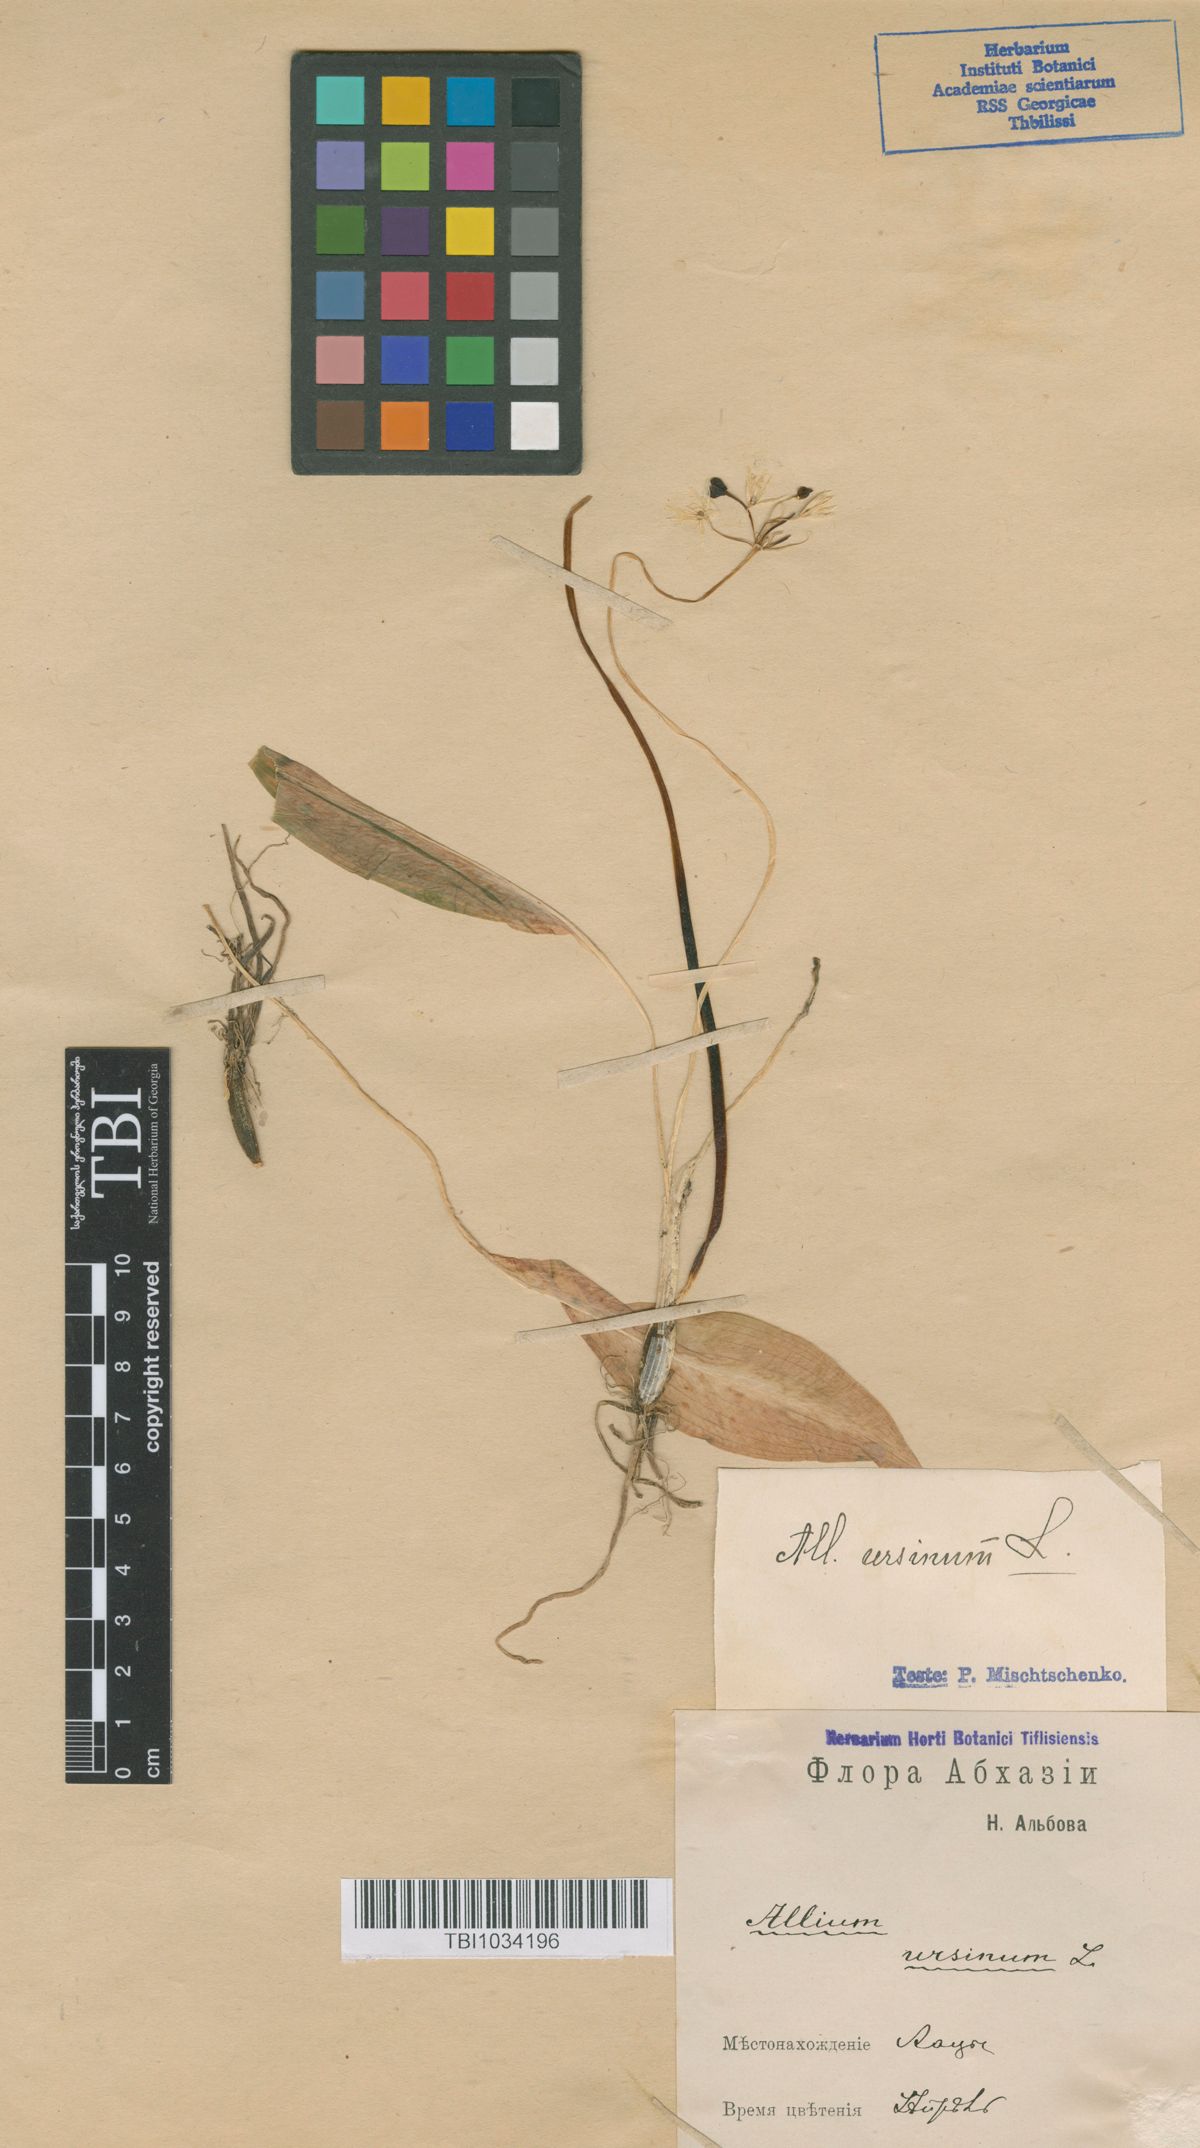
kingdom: Plantae
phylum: Tracheophyta
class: Liliopsida
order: Asparagales
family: Amaryllidaceae
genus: Allium
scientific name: Allium ursinum
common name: Ramsons
